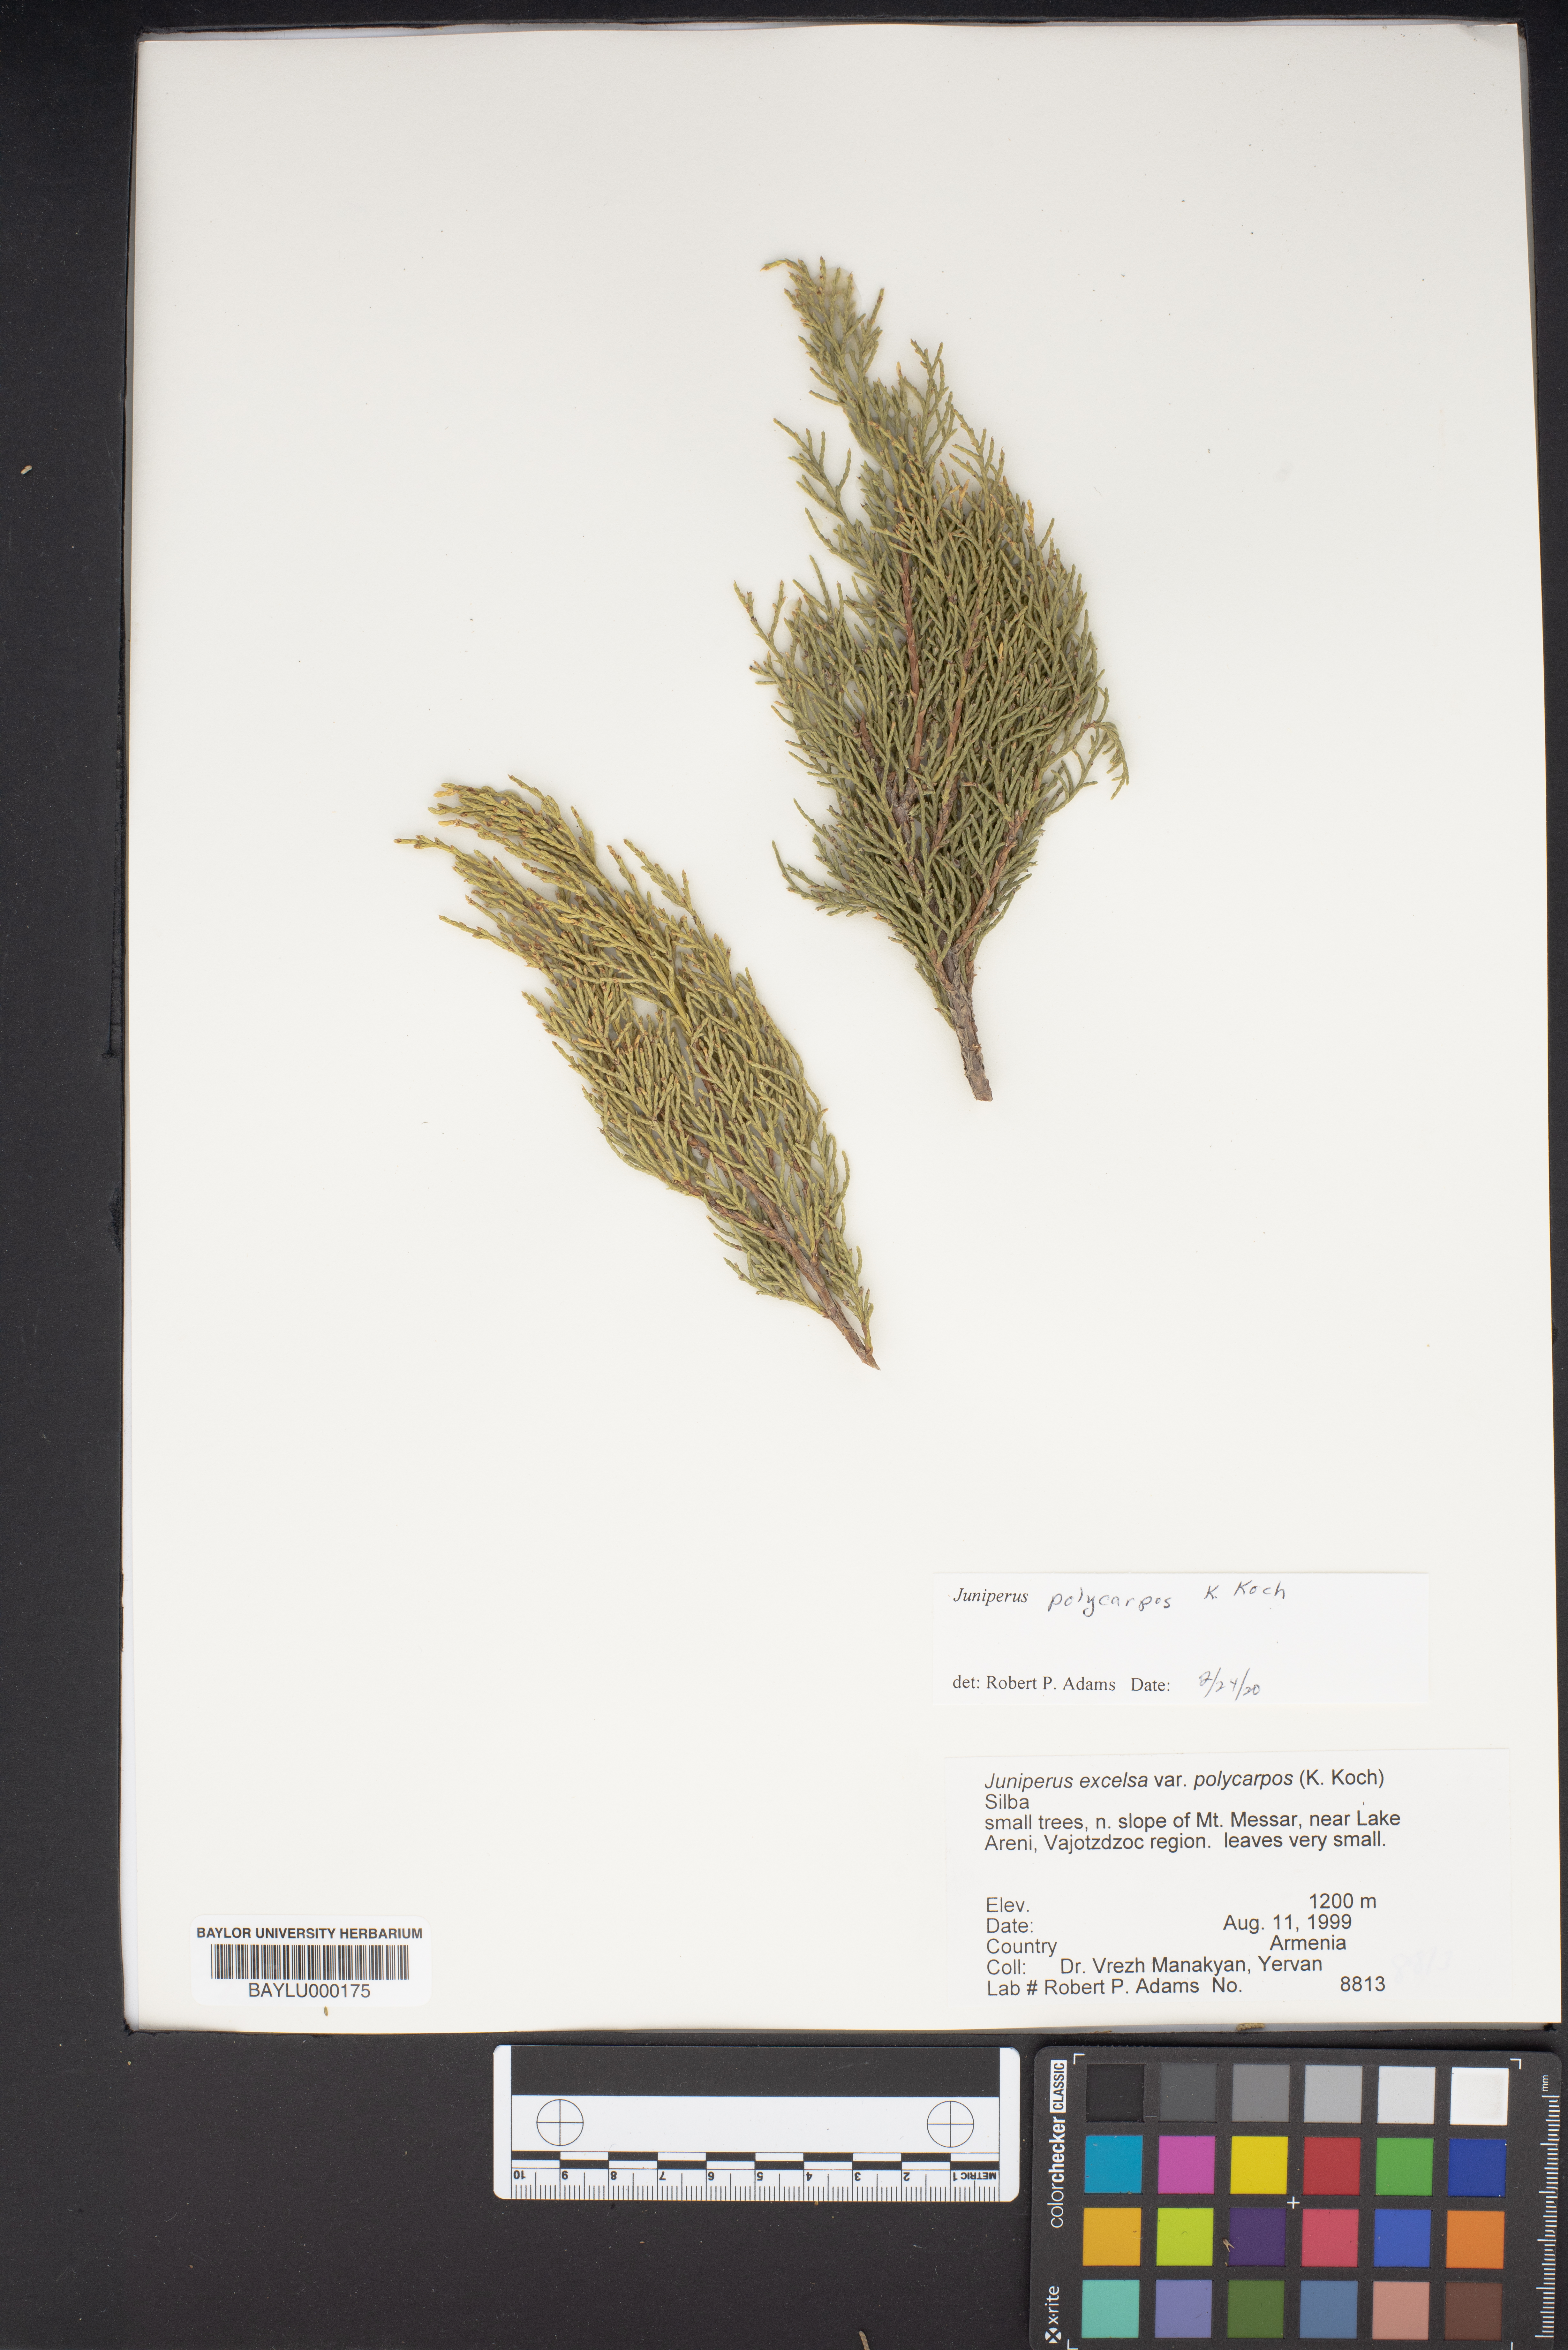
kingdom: Plantae
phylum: Tracheophyta
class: Pinopsida
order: Pinales
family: Cupressaceae
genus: Juniperus
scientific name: Juniperus excelsa
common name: Crimean juniper
